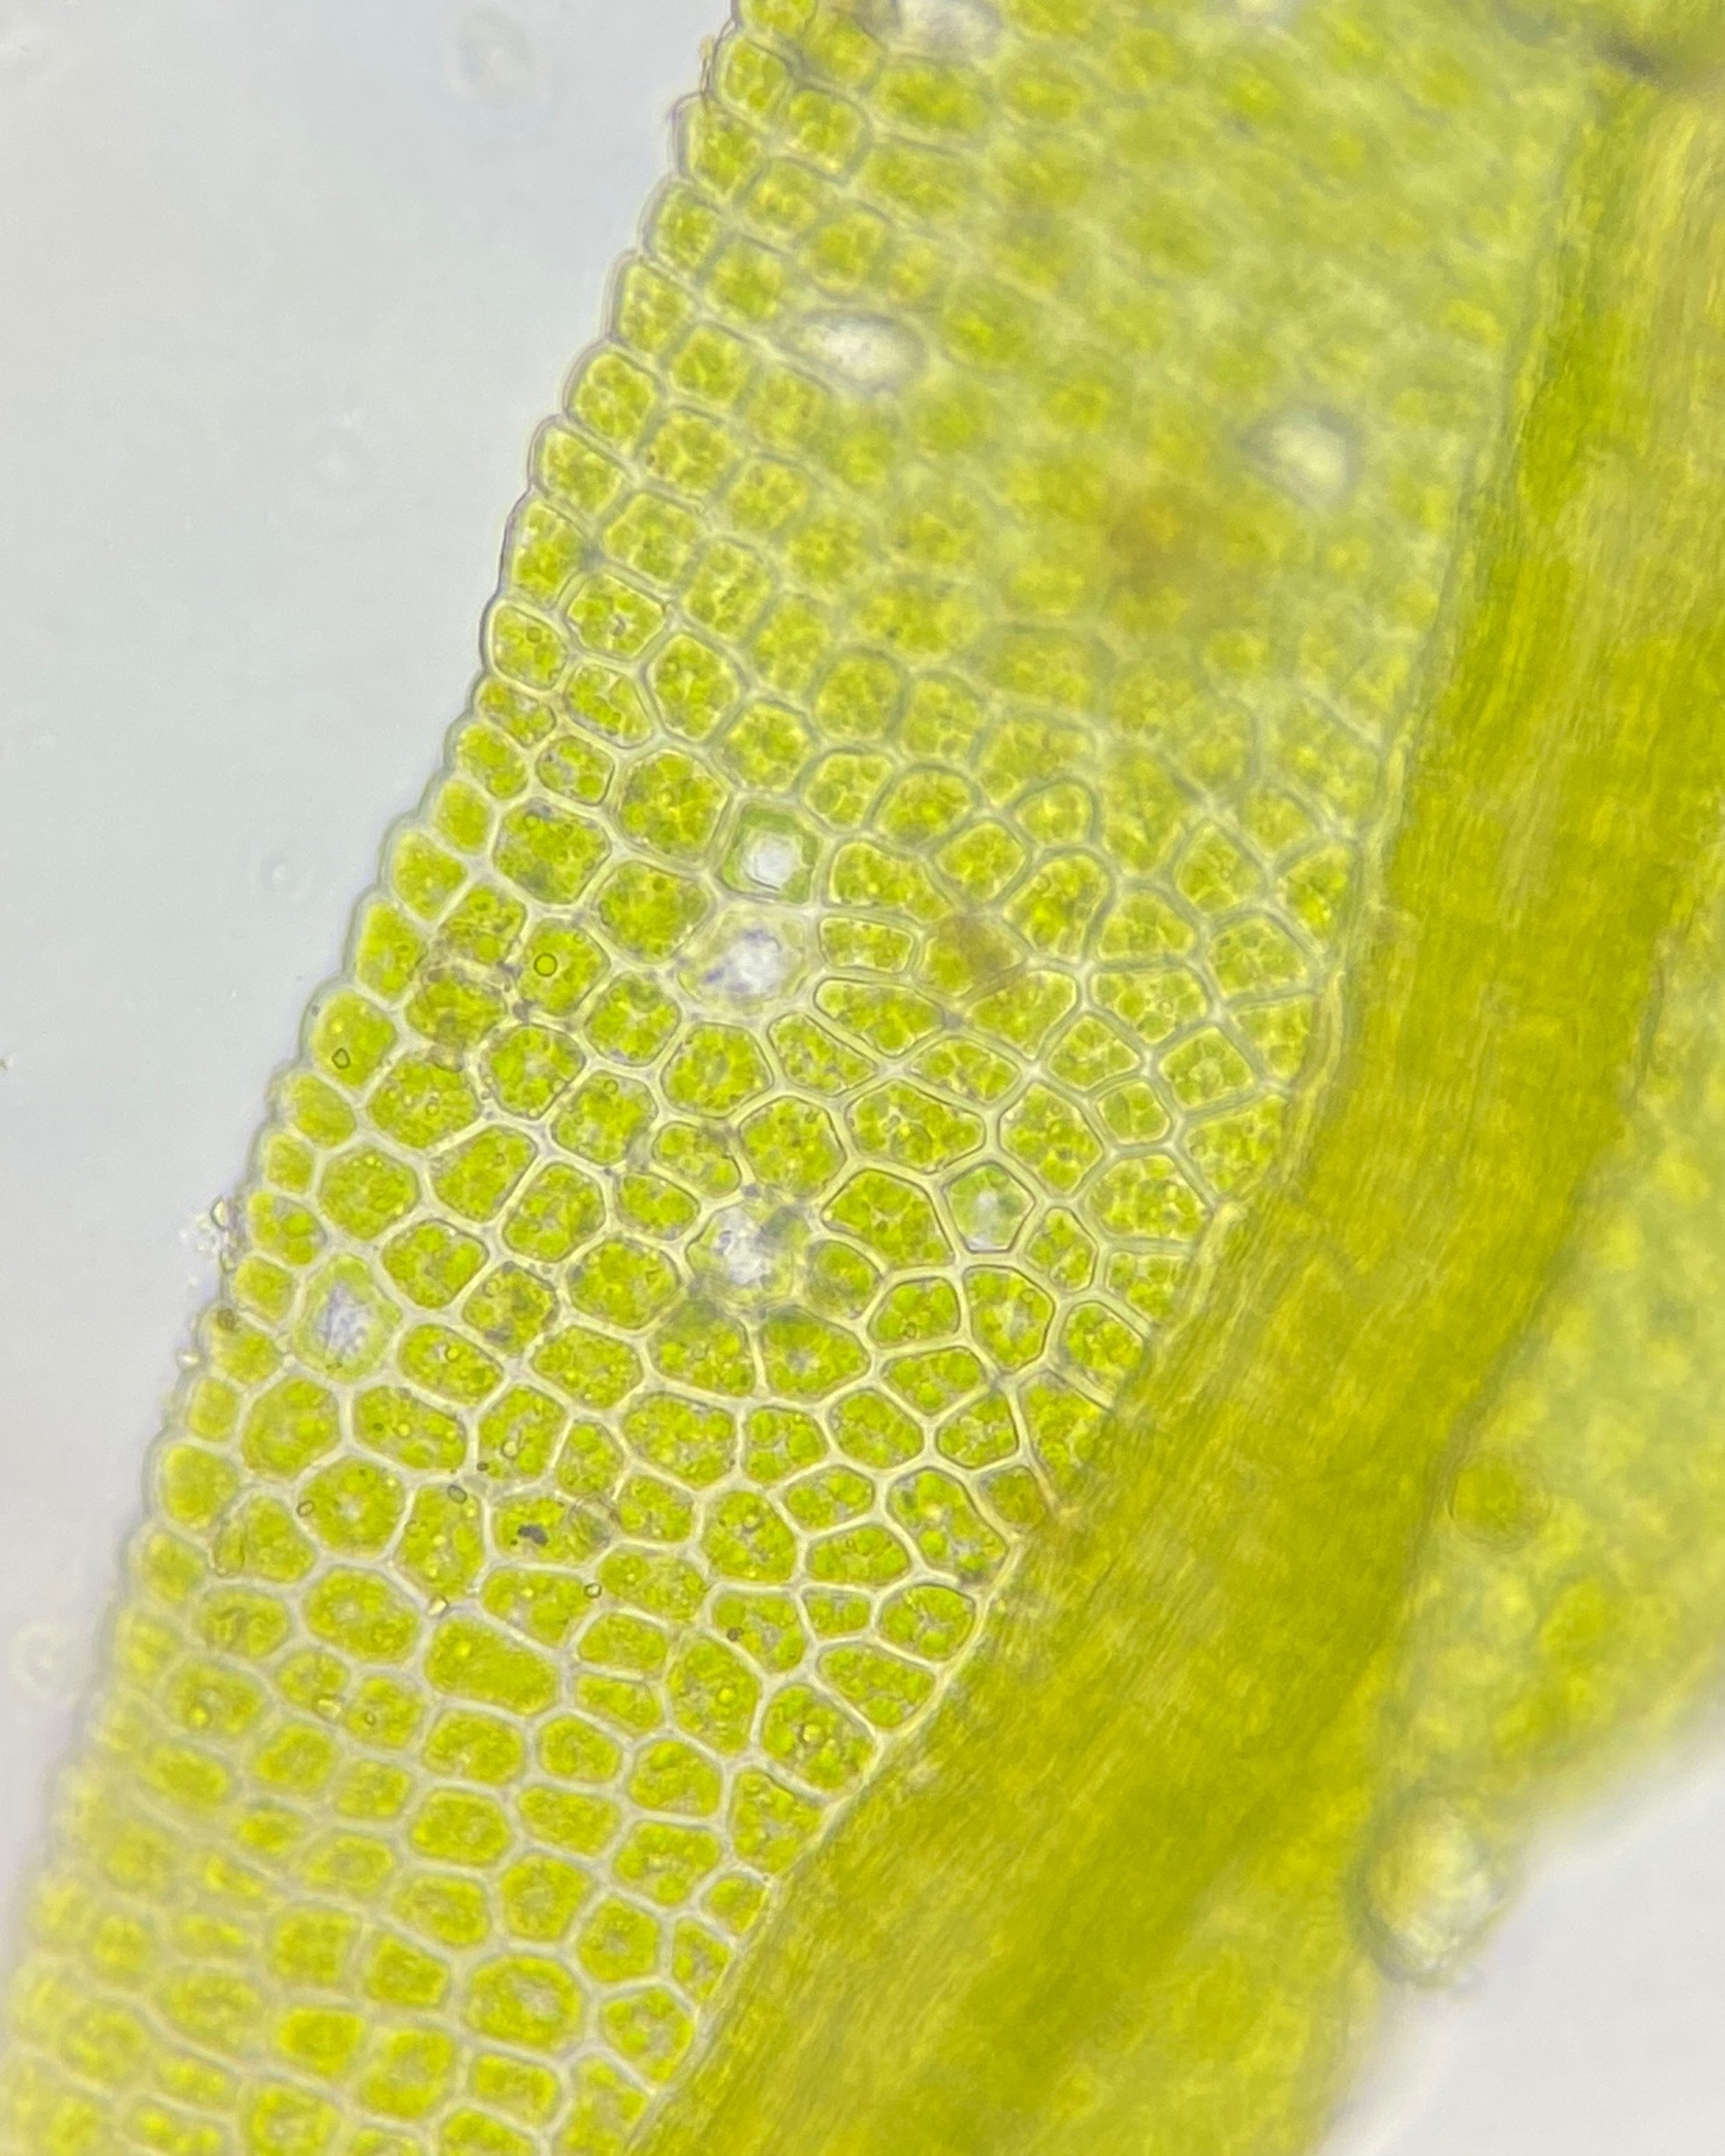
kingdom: Plantae
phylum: Bryophyta
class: Bryopsida
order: Dicranales
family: Fissidentaceae
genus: Fissidens
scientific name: Fissidens exilis
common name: Ler-rademos
